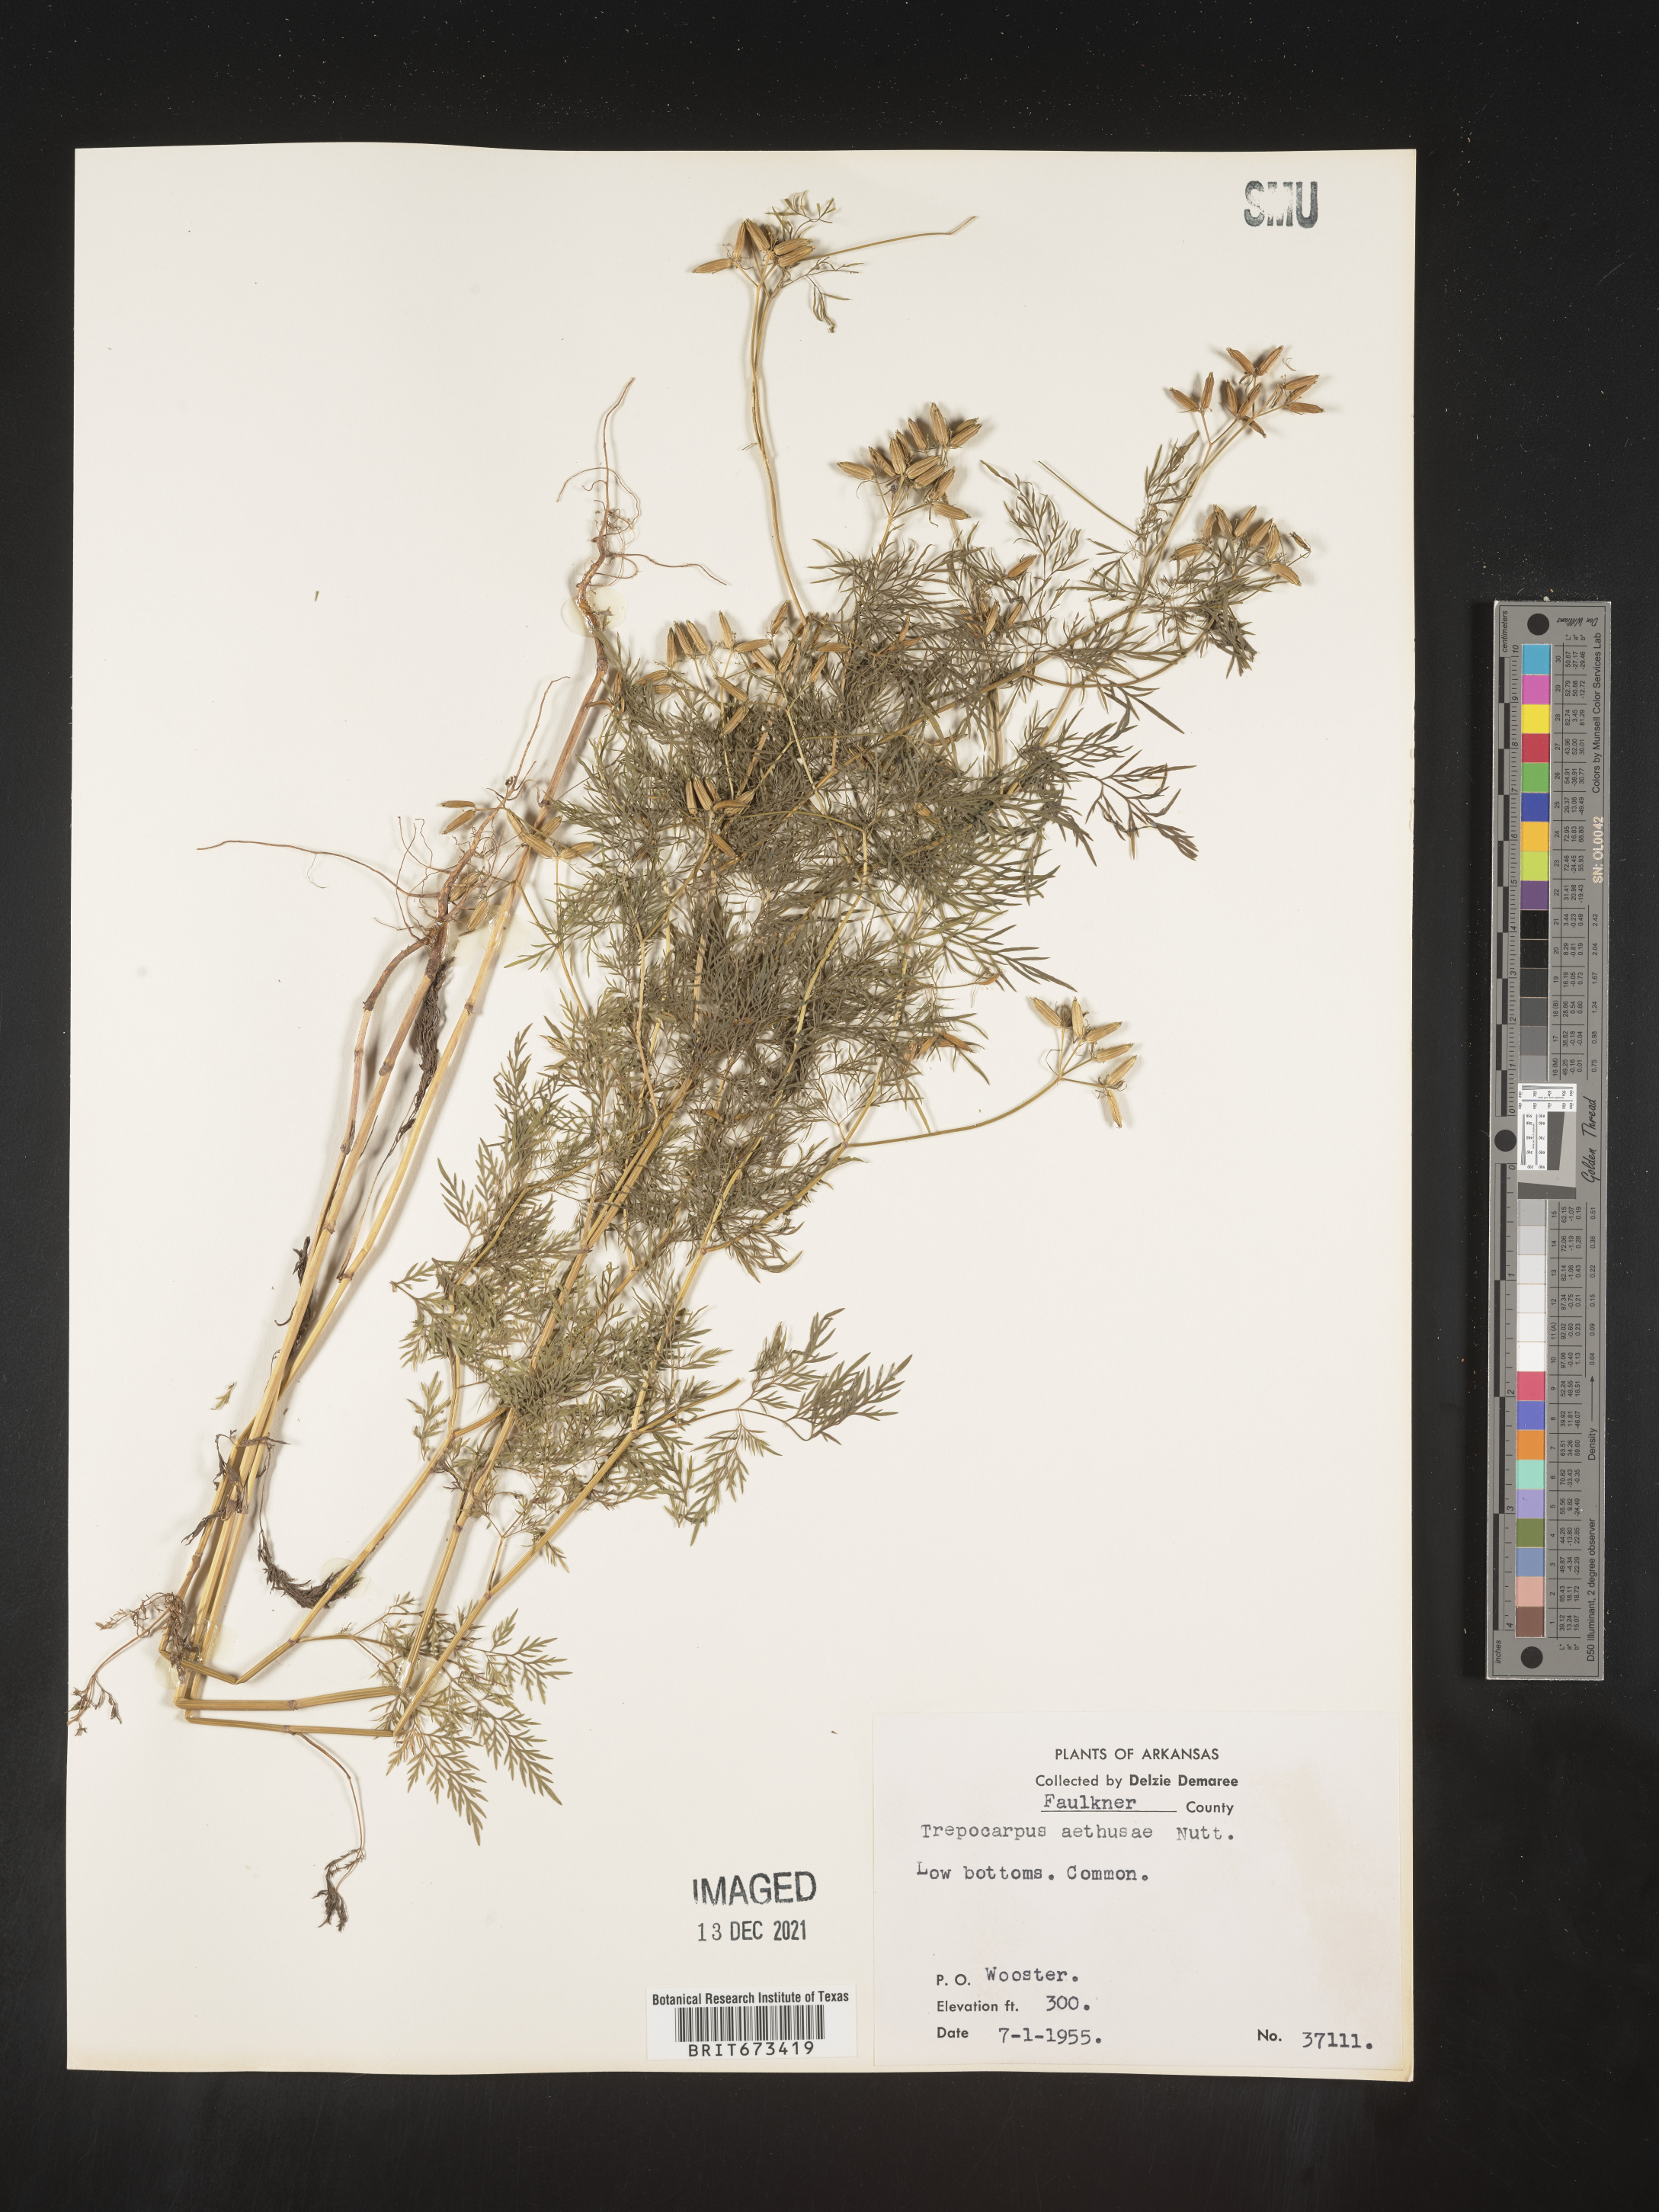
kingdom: Plantae
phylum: Tracheophyta
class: Magnoliopsida
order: Apiales
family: Apiaceae
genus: Trepocarpus
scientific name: Trepocarpus aethusae
